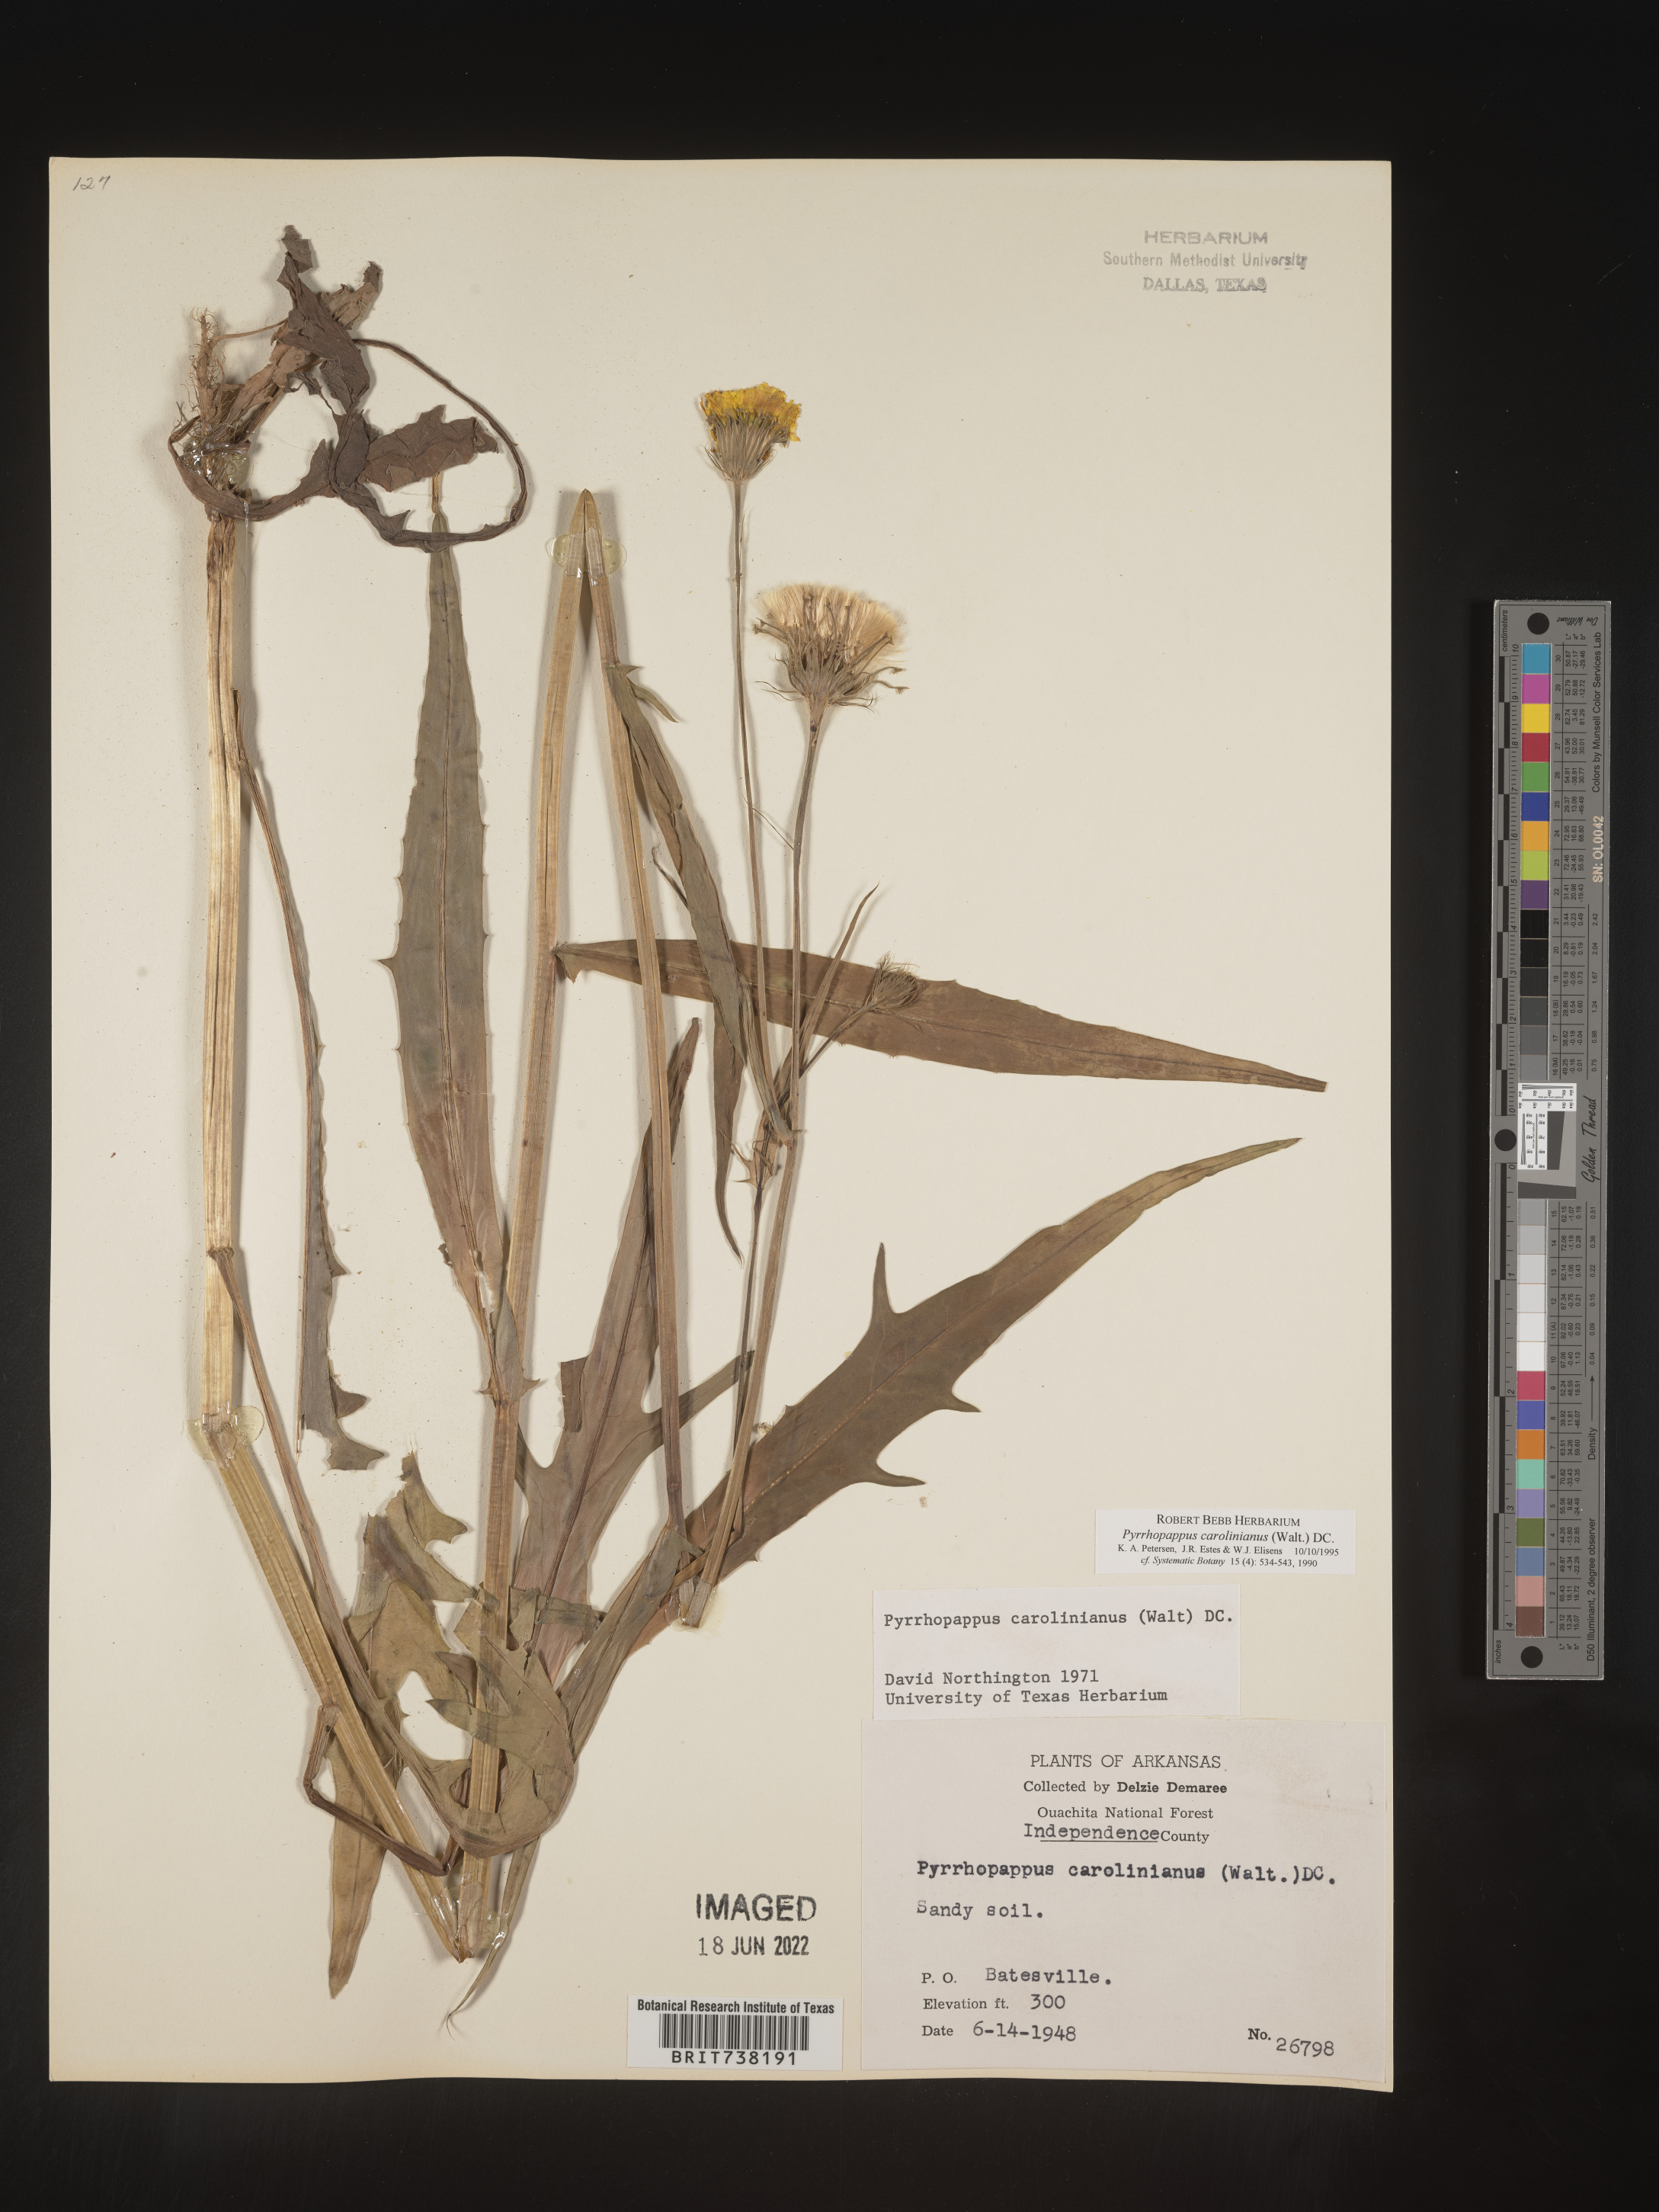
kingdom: Plantae
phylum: Tracheophyta
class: Magnoliopsida
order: Asterales
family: Asteraceae
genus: Pyrrhopappus
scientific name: Pyrrhopappus carolinianus
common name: Carolina desert-chicory
